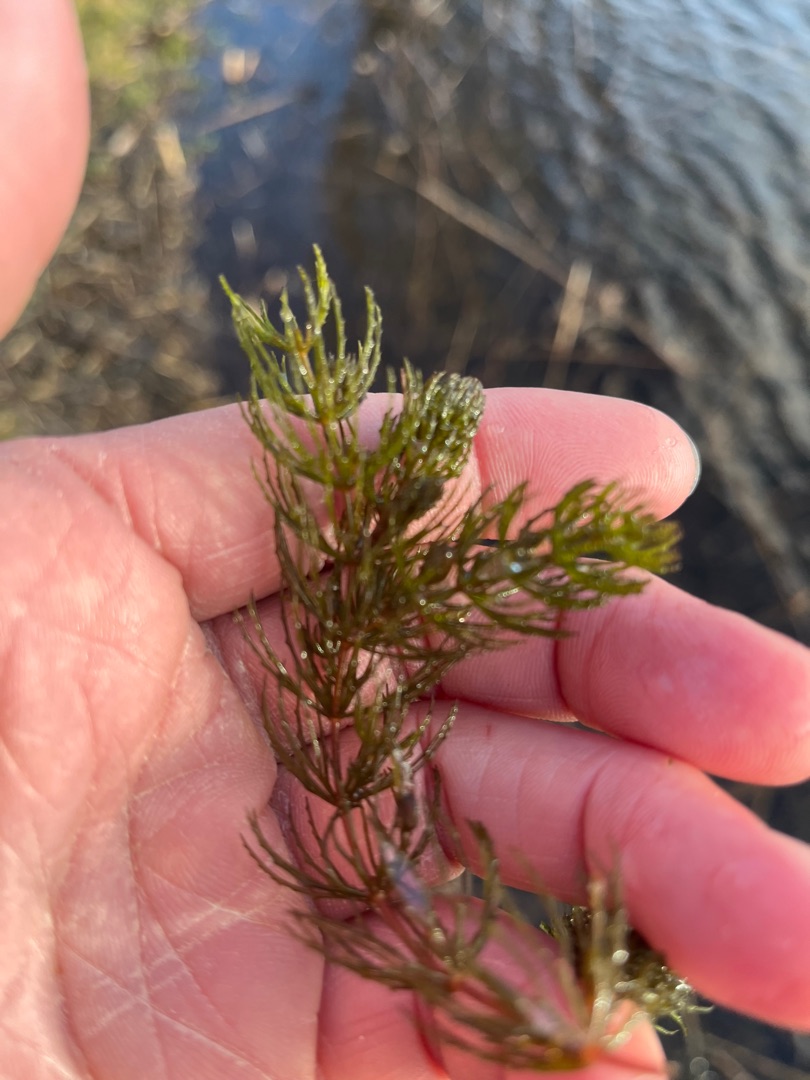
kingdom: Plantae
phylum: Tracheophyta
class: Magnoliopsida
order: Ceratophyllales
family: Ceratophyllaceae
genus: Ceratophyllum
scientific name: Ceratophyllum demersum
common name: Tornfrøet hornblad
